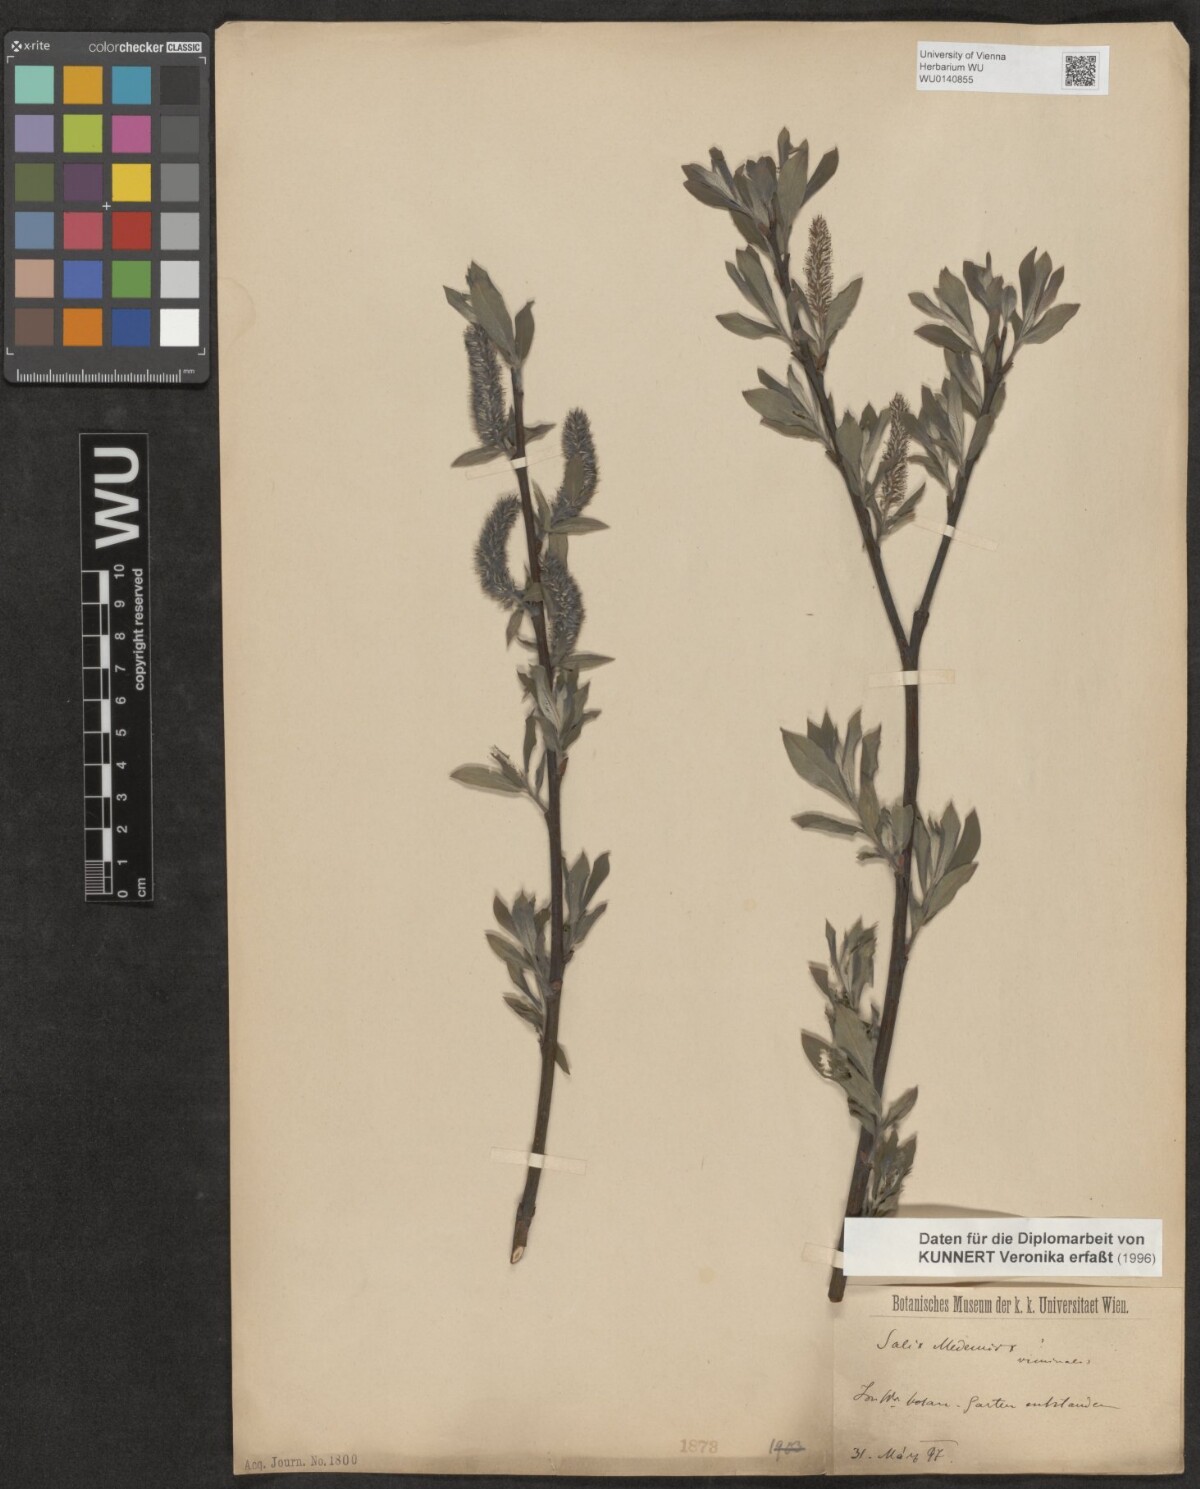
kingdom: Plantae
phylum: Tracheophyta
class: Magnoliopsida
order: Malpighiales
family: Salicaceae
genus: Salix
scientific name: Salix
